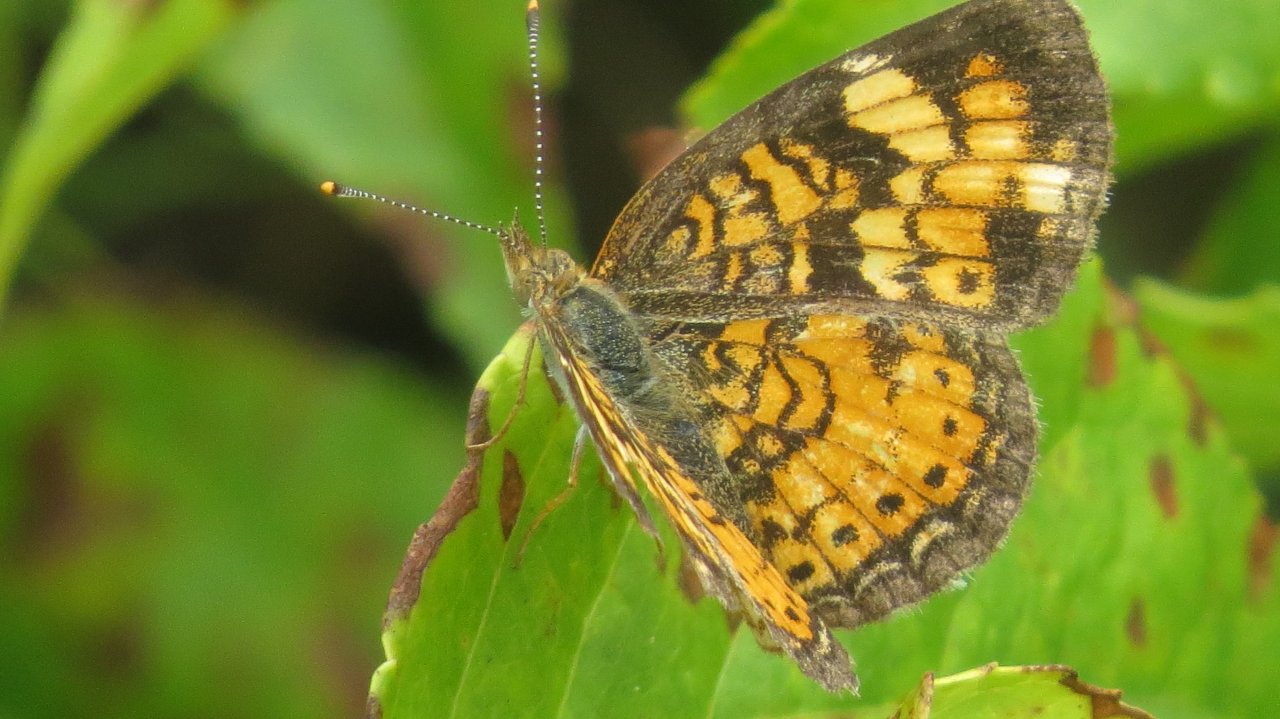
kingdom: Animalia
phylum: Arthropoda
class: Insecta
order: Lepidoptera
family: Nymphalidae
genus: Phyciodes
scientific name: Phyciodes tharos
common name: Pearl Crescent
